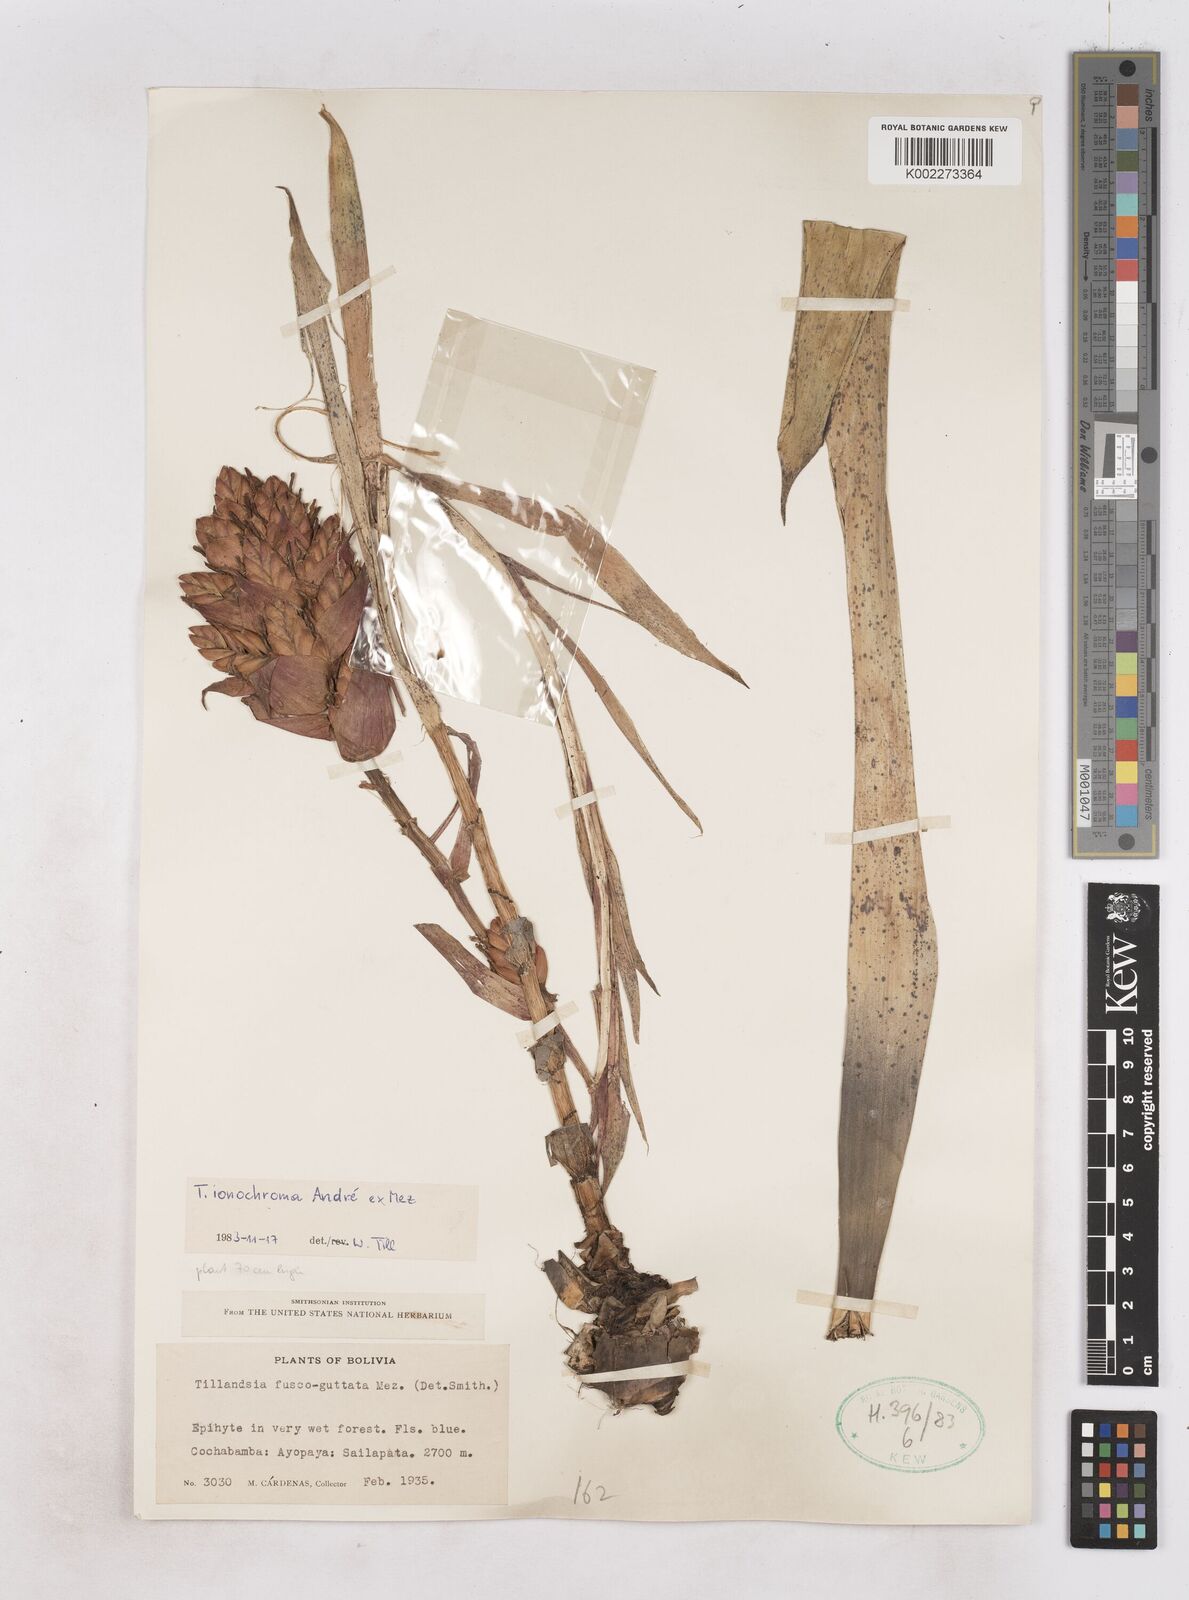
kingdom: Plantae
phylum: Tracheophyta
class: Liliopsida
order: Poales
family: Bromeliaceae
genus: Tillandsia
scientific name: Tillandsia ionochroma
